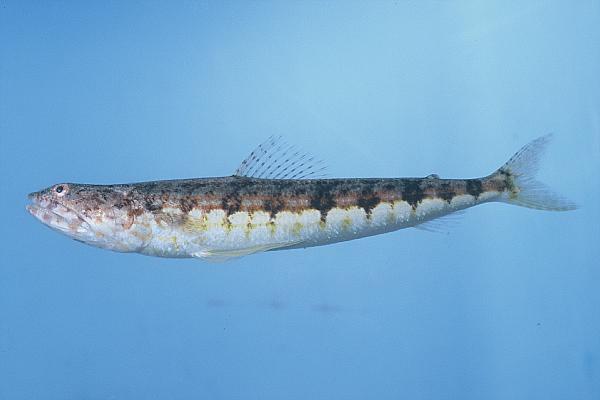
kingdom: Animalia
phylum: Chordata
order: Aulopiformes
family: Synodontidae
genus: Synodus
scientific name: Synodus dermatogenys
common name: Banded lizardfish
